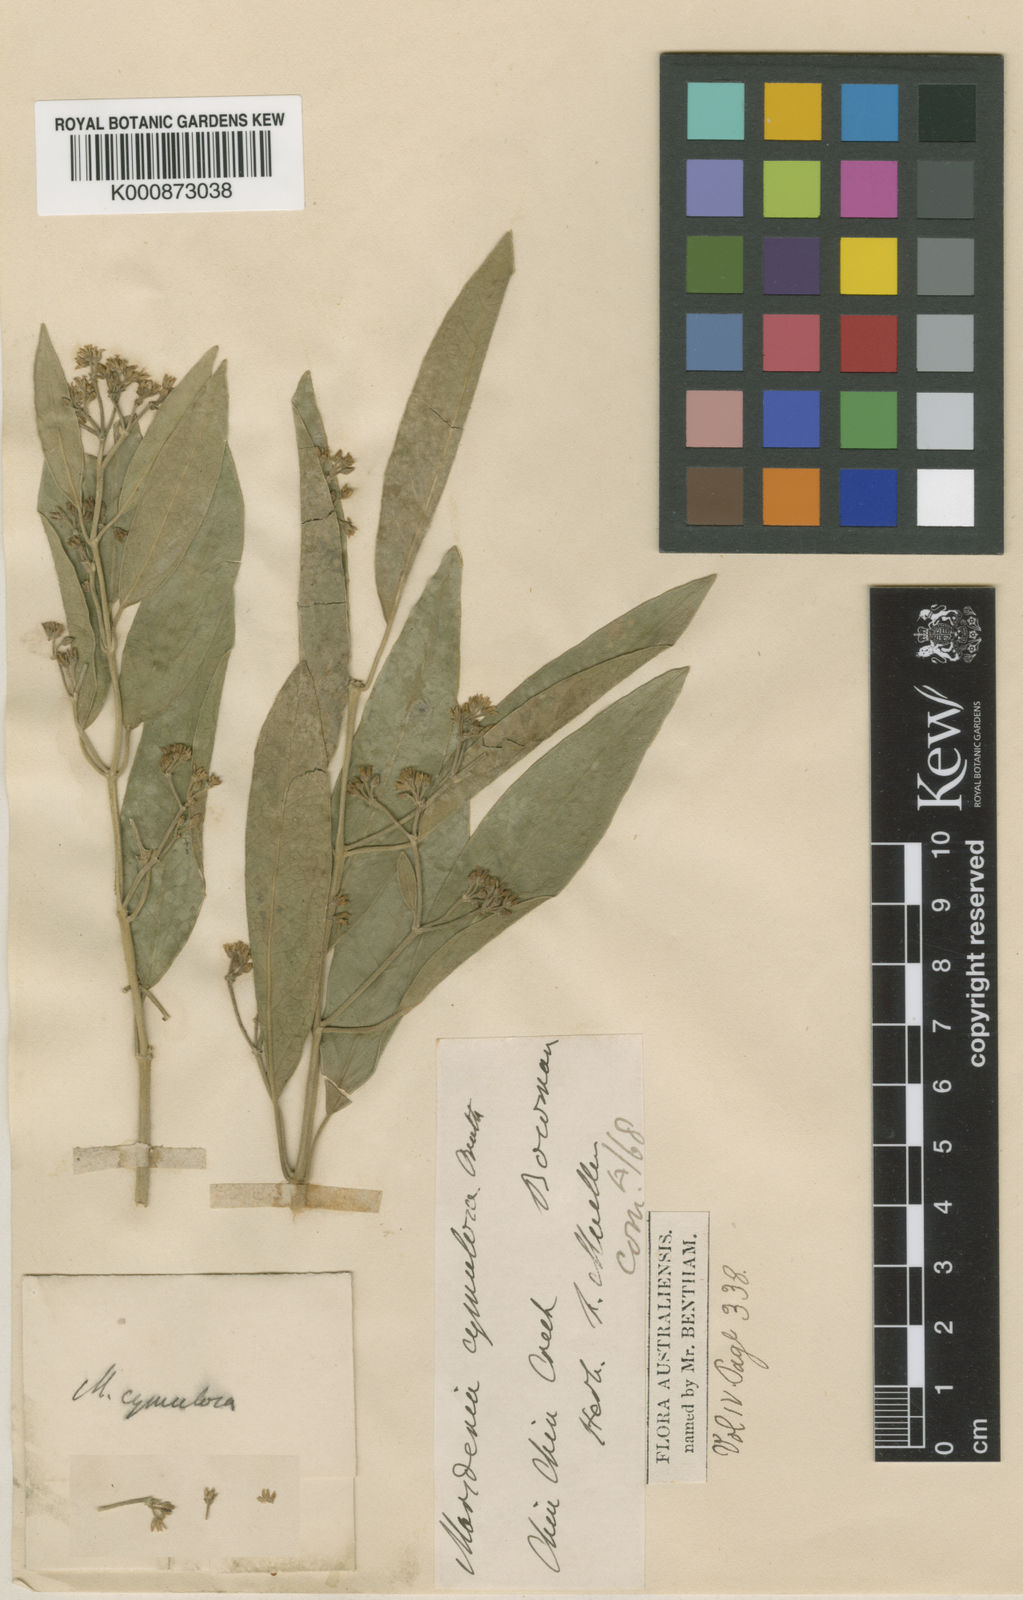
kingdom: Plantae
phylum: Tracheophyta
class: Magnoliopsida
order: Gentianales
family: Apocynaceae
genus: Leichhardtia
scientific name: Leichhardtia cymulosa
